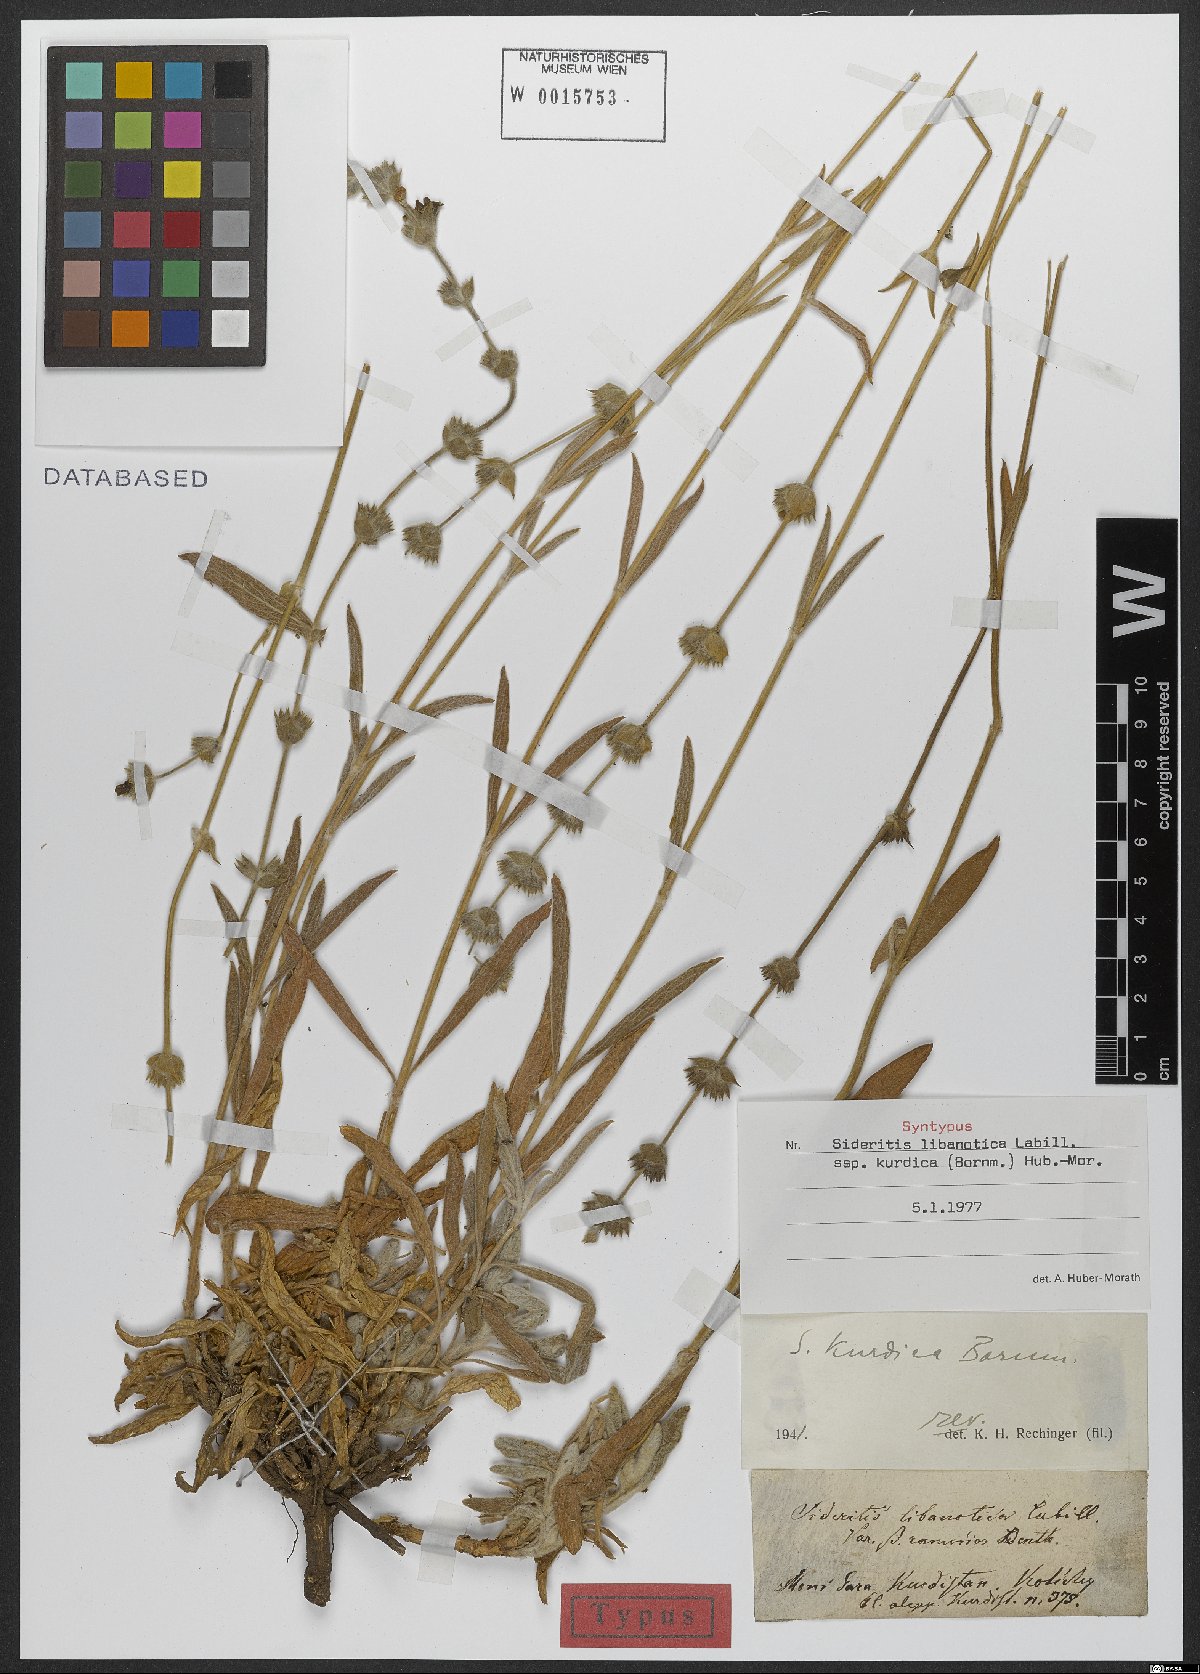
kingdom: Plantae
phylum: Tracheophyta
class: Magnoliopsida
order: Lamiales
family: Lamiaceae
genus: Sideritis
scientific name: Sideritis libanotica
